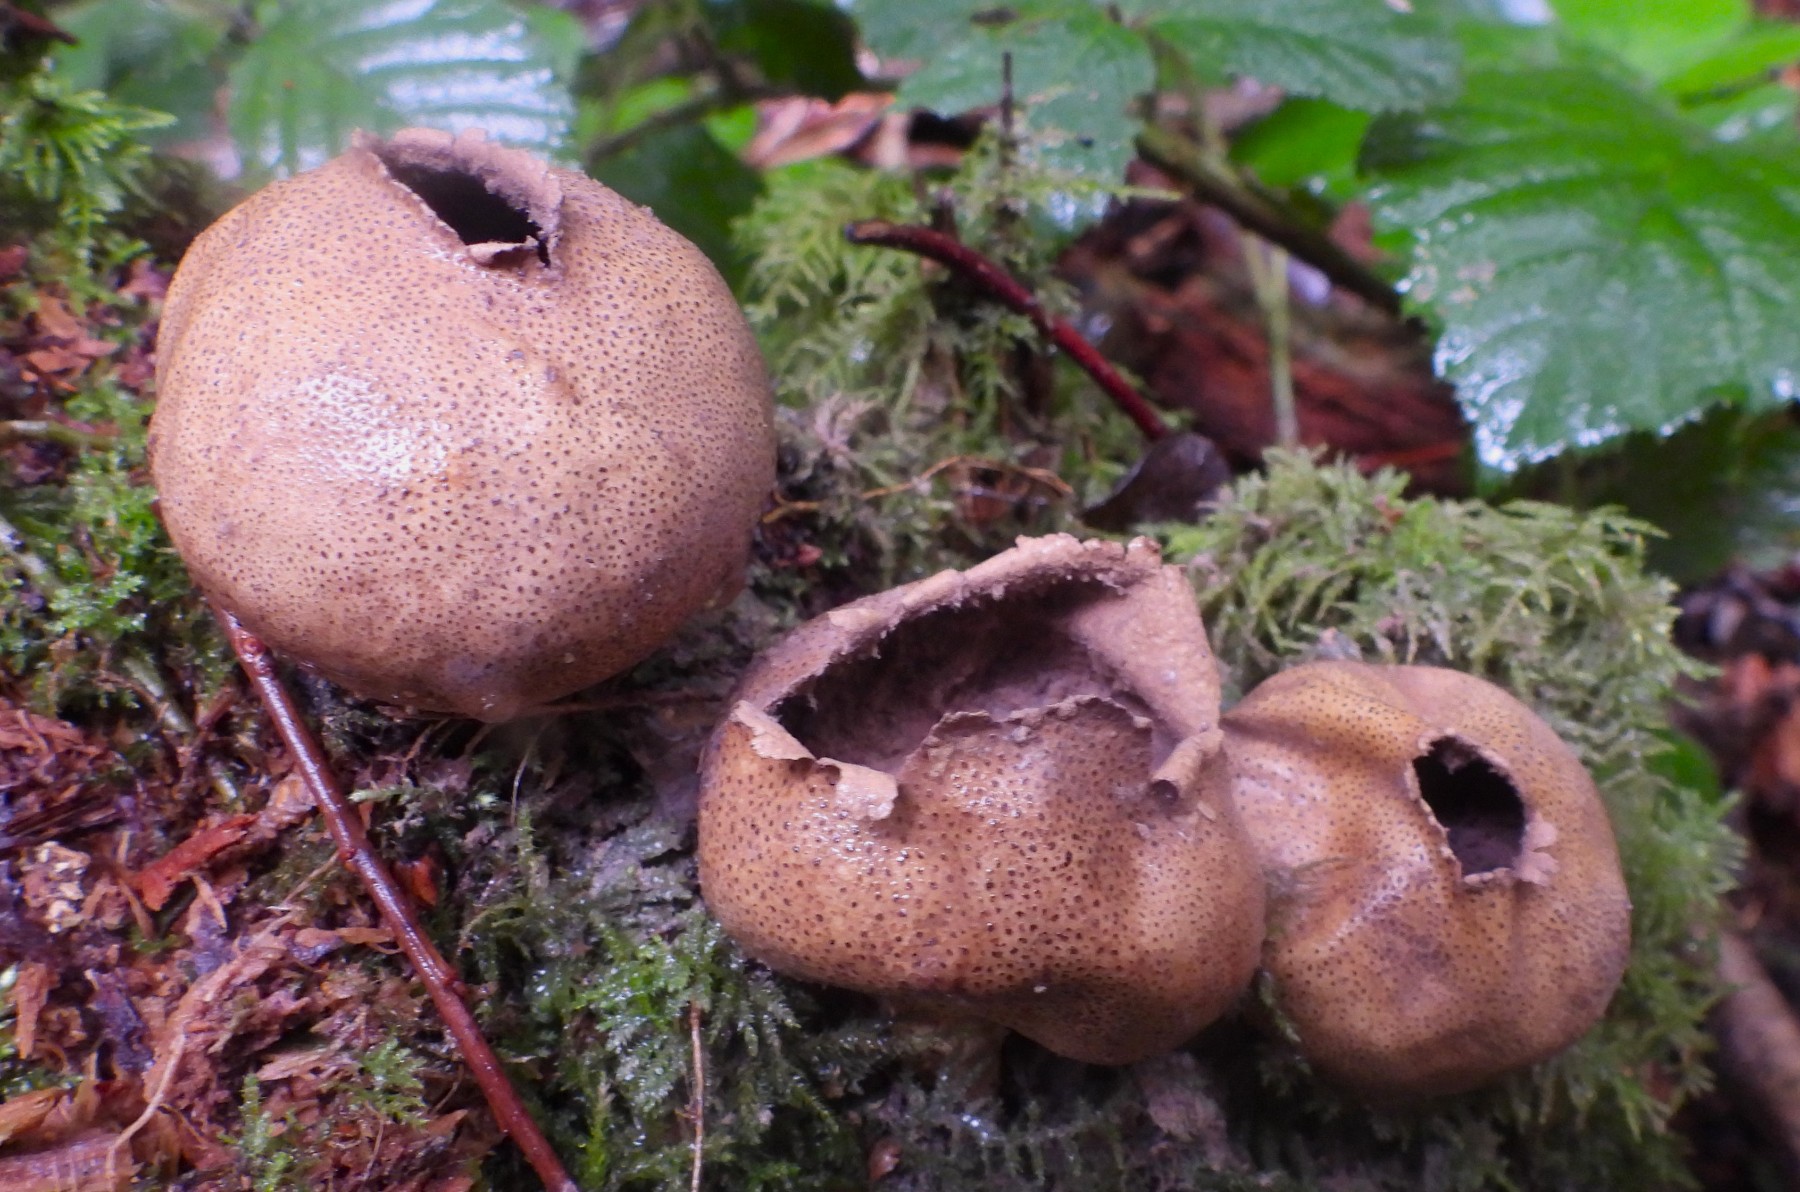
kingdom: Fungi
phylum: Basidiomycota
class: Agaricomycetes
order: Boletales
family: Sclerodermataceae
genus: Scleroderma
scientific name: Scleroderma areolatum
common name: plettet bruskbold
